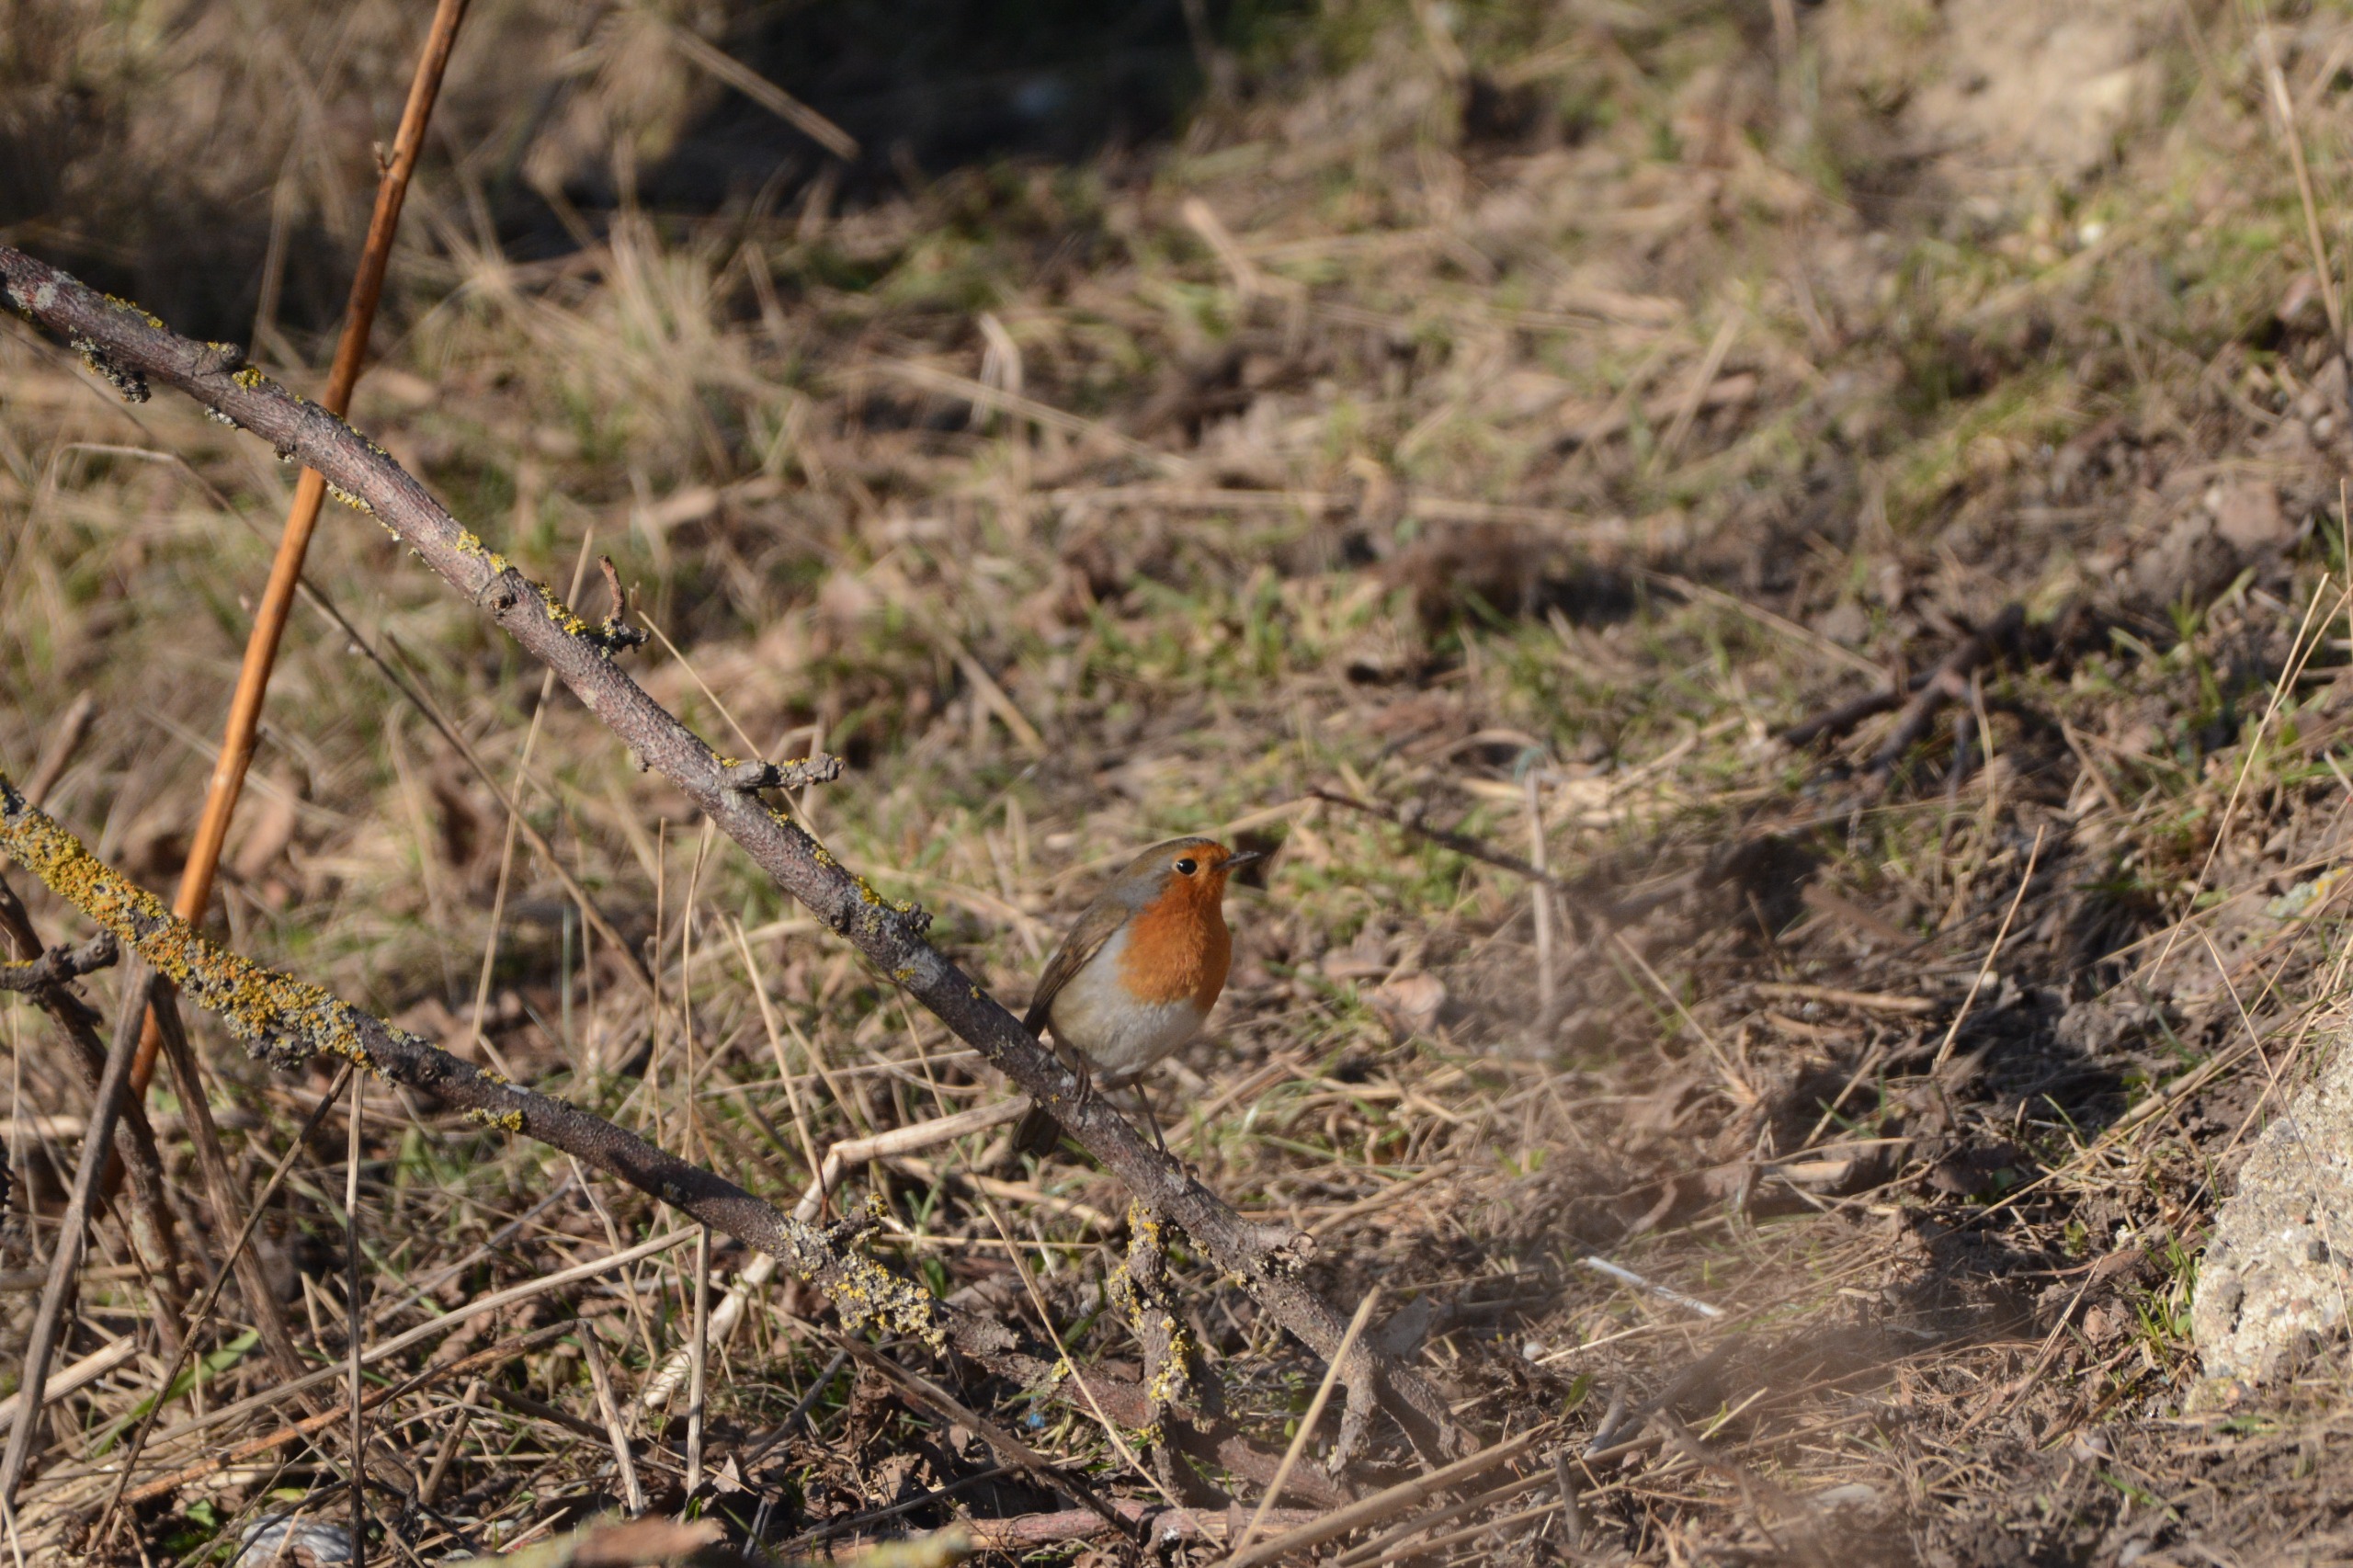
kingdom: Animalia
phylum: Chordata
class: Aves
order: Passeriformes
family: Muscicapidae
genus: Erithacus
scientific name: Erithacus rubecula
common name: Rødhals/rødkælk
